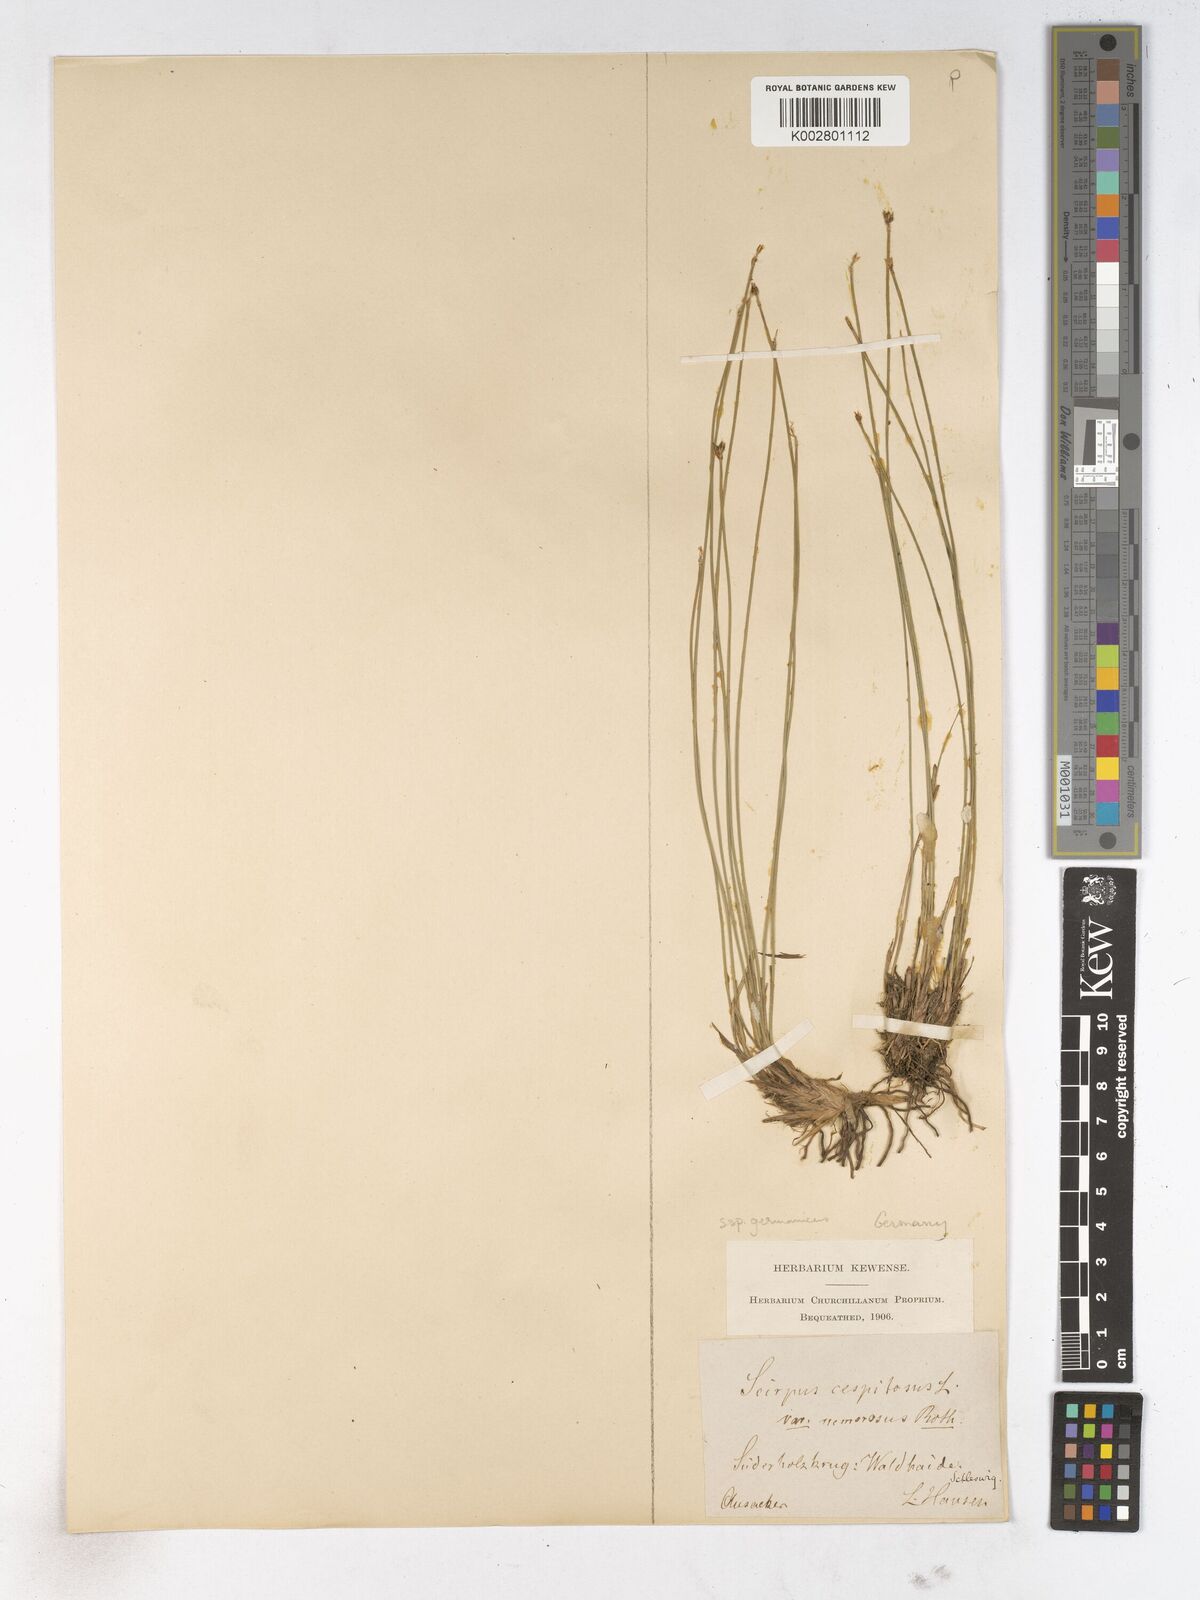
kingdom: Plantae
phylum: Tracheophyta
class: Liliopsida
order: Poales
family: Cyperaceae
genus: Trichophorum
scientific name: Trichophorum cespitosum
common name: Cespitose bulrush
